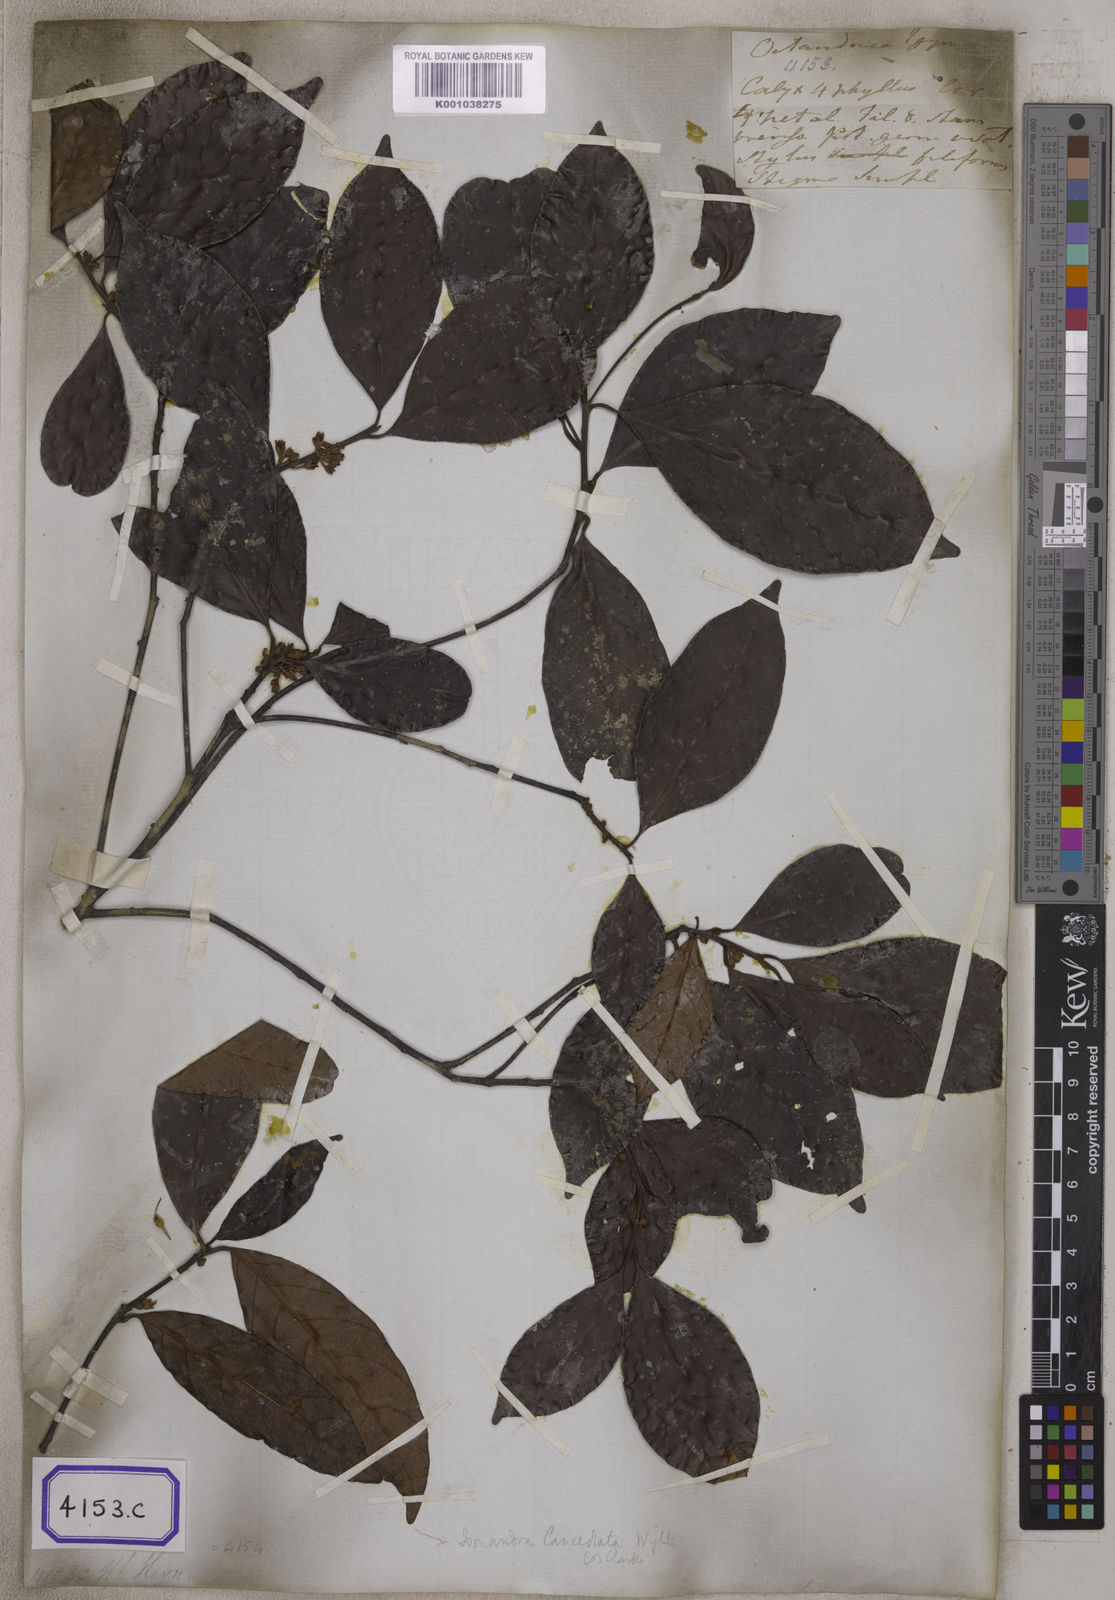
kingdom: Plantae
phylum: Tracheophyta
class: Magnoliopsida
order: Ericales
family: Sapotaceae
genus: Xantolis
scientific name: Xantolis tomentosa
